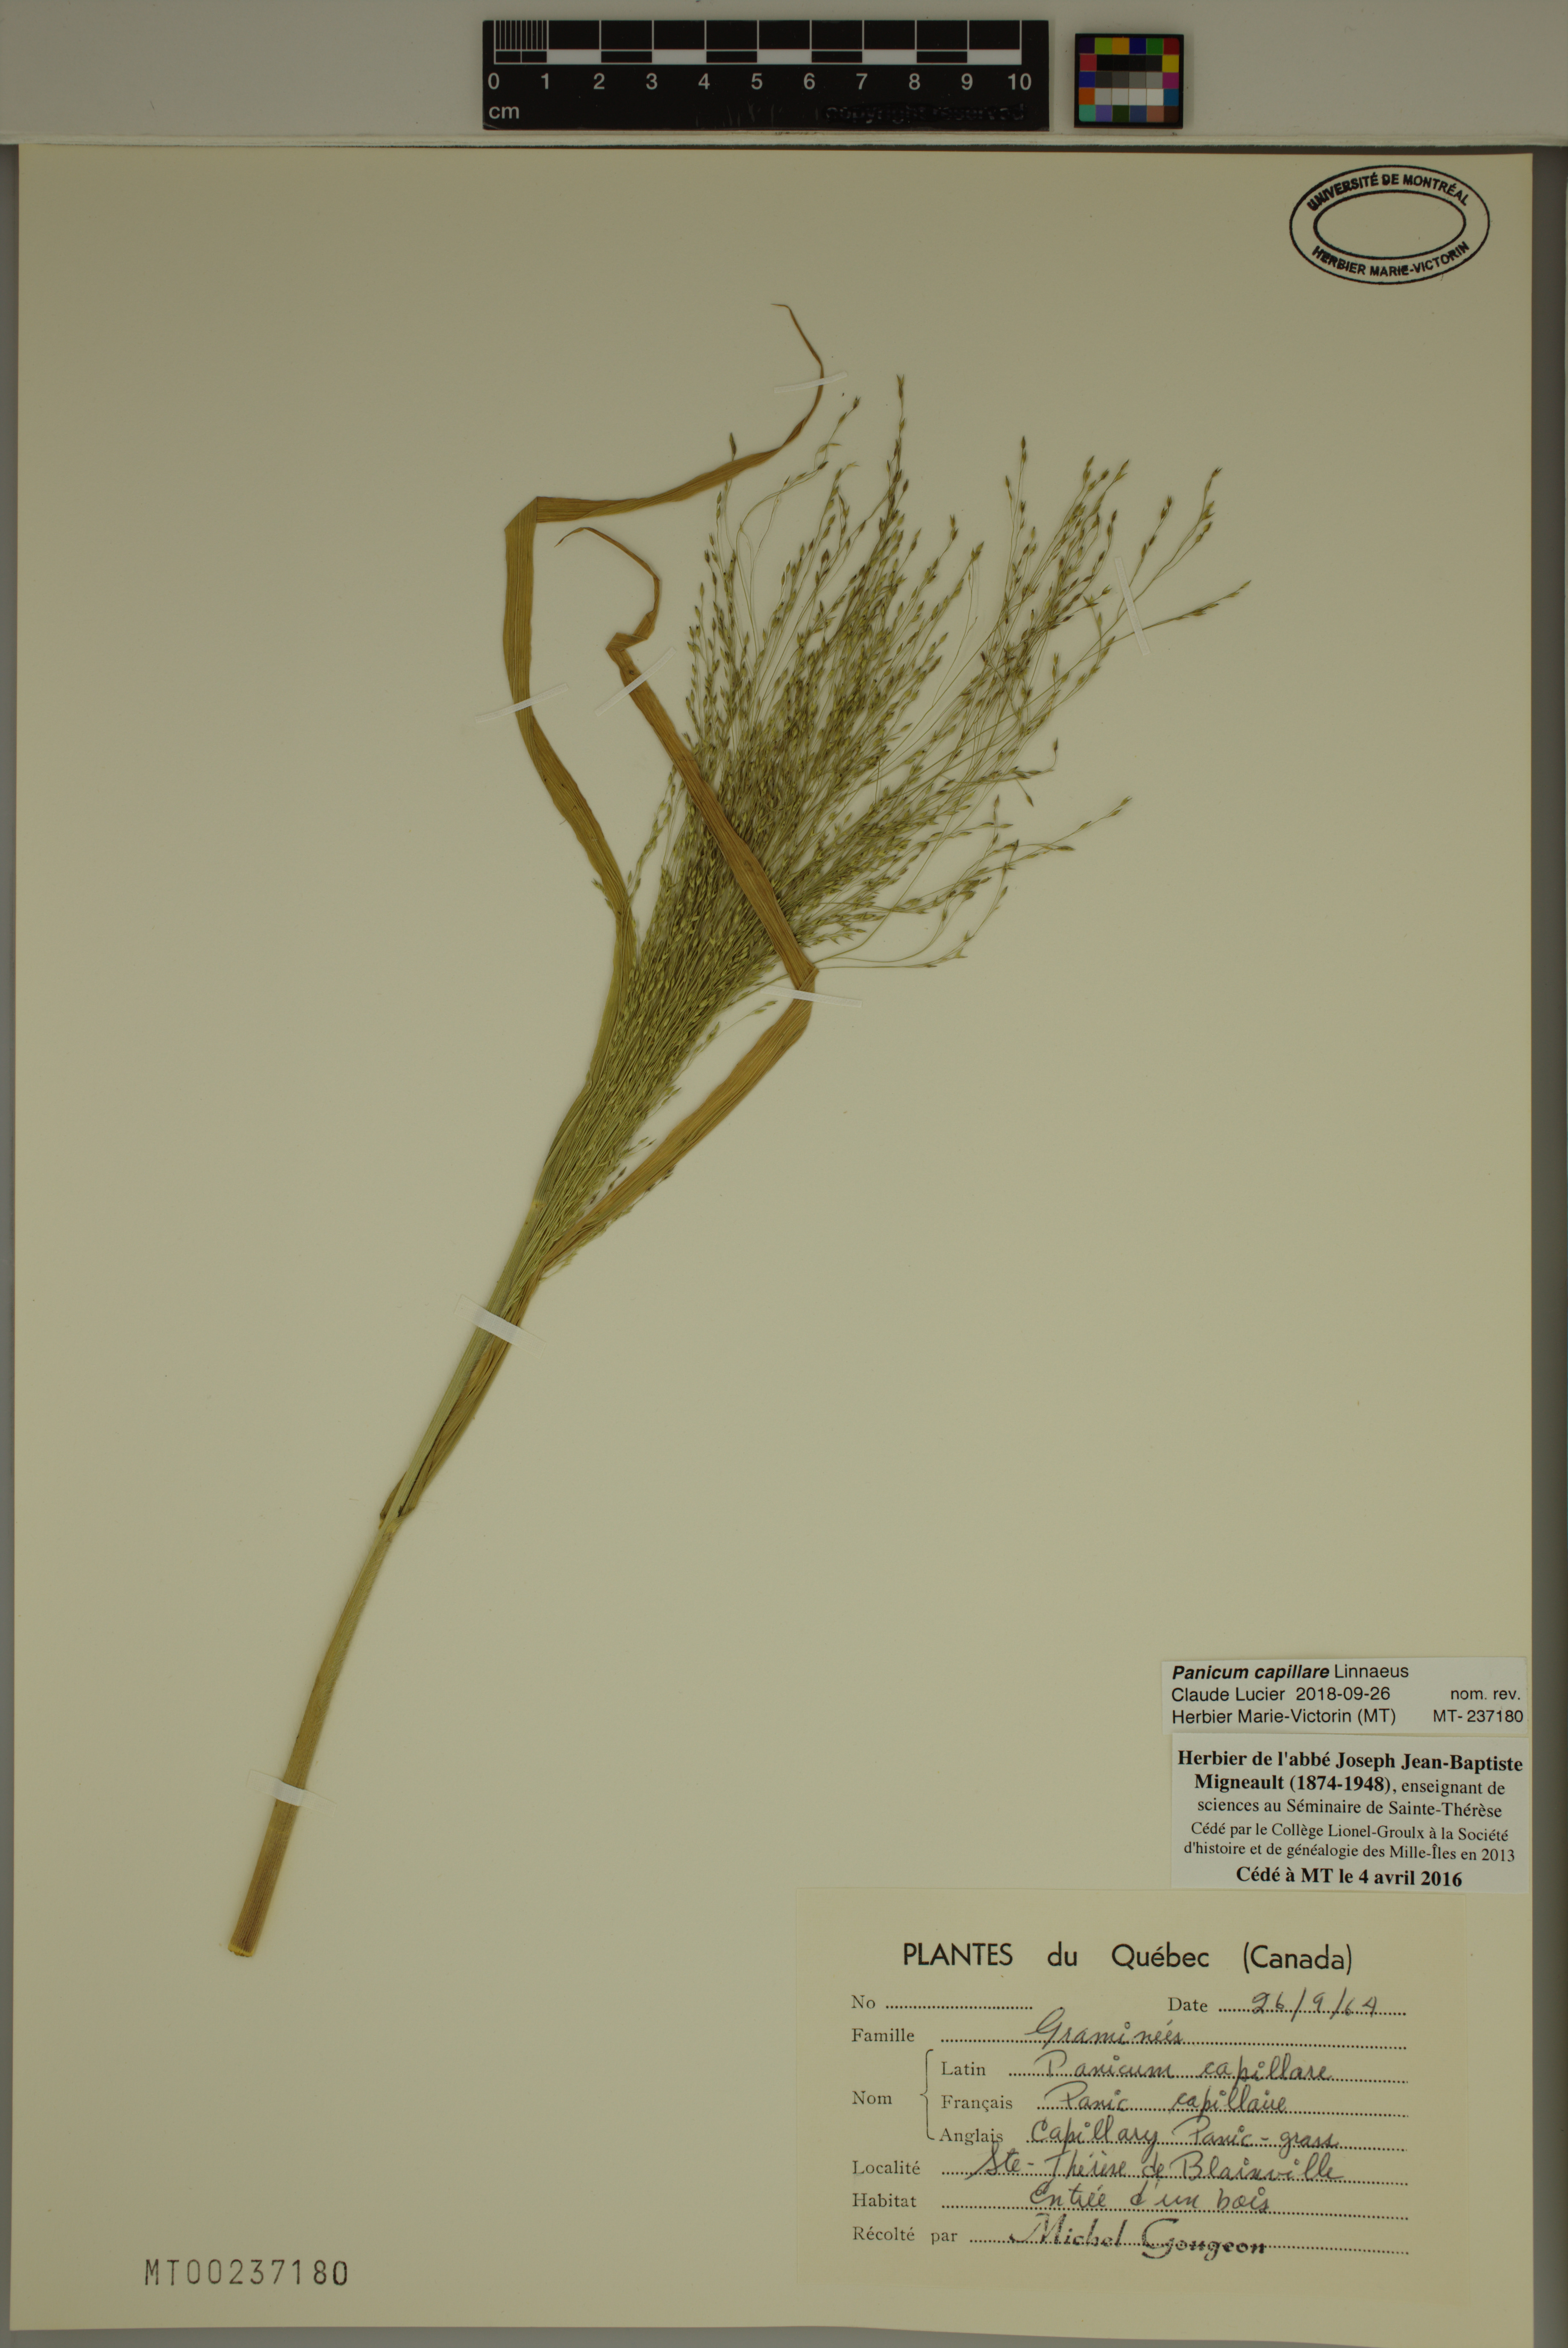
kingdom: Plantae
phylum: Tracheophyta
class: Liliopsida
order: Poales
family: Poaceae
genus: Panicum
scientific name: Panicum capillare
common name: Witch-grass
